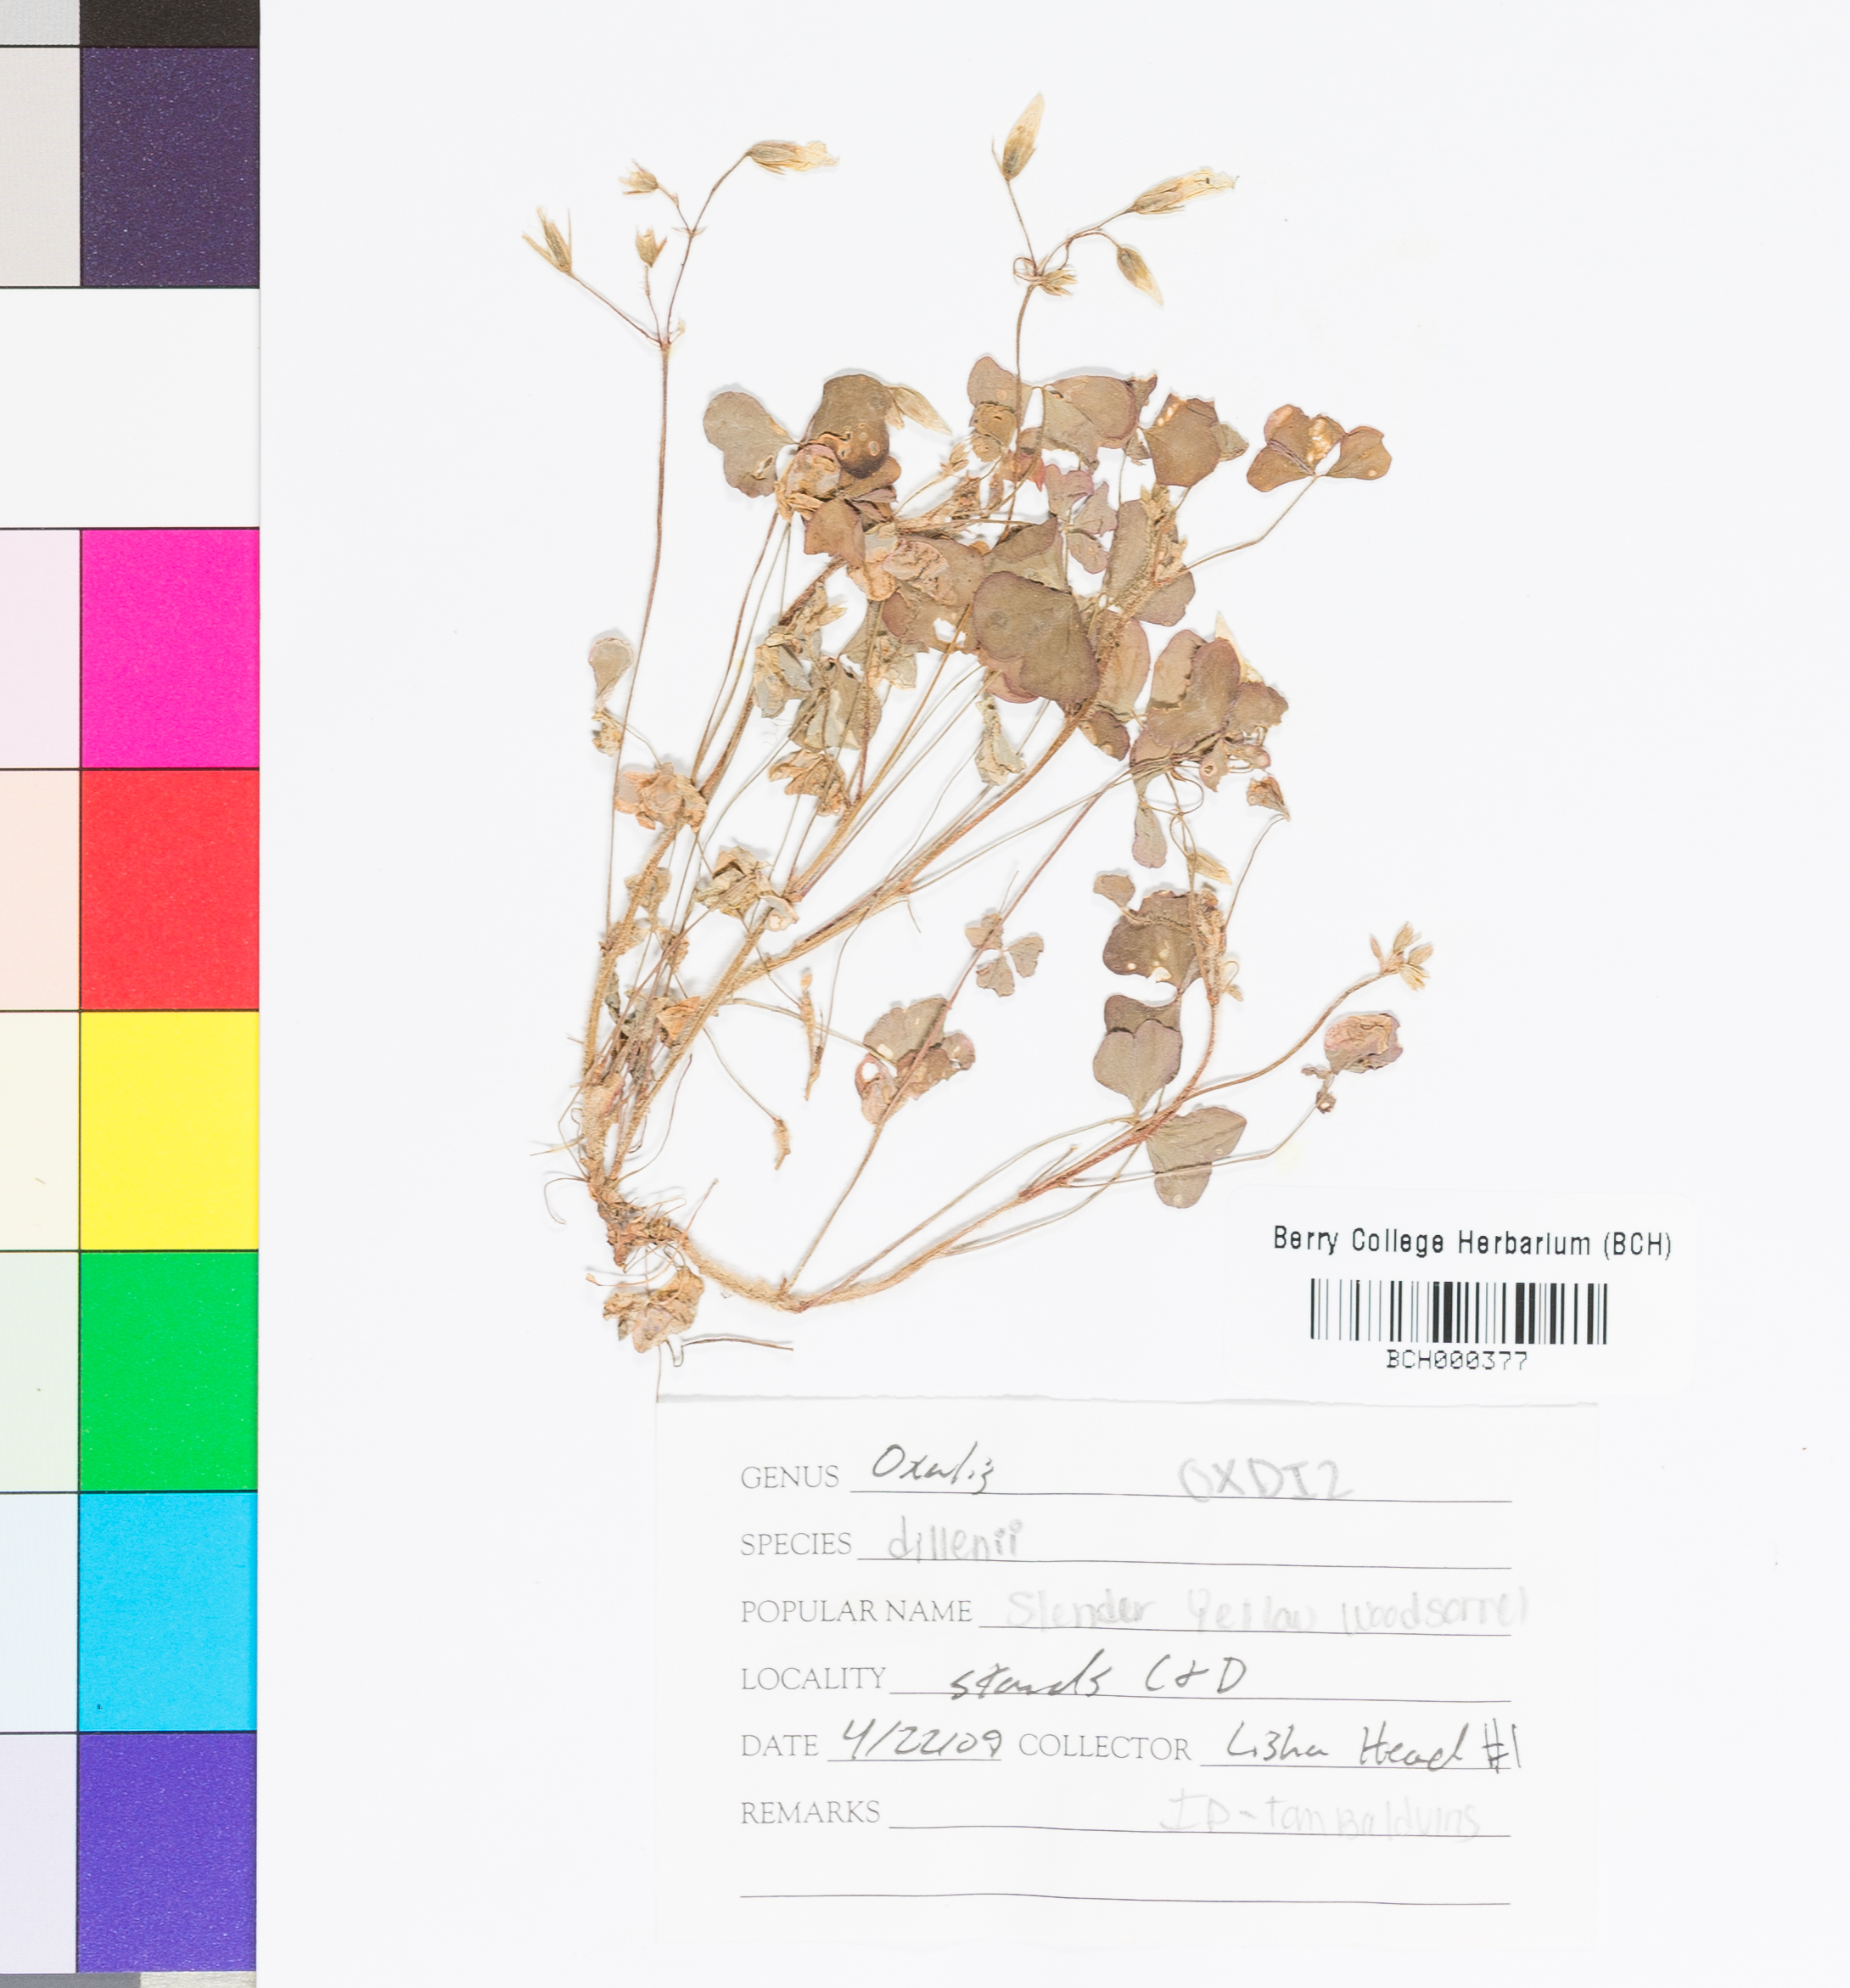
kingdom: Plantae
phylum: Tracheophyta
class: Magnoliopsida
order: Oxalidales
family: Oxalidaceae
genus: Oxalis
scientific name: Oxalis dillenii
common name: Sussex yellow-sorrel
